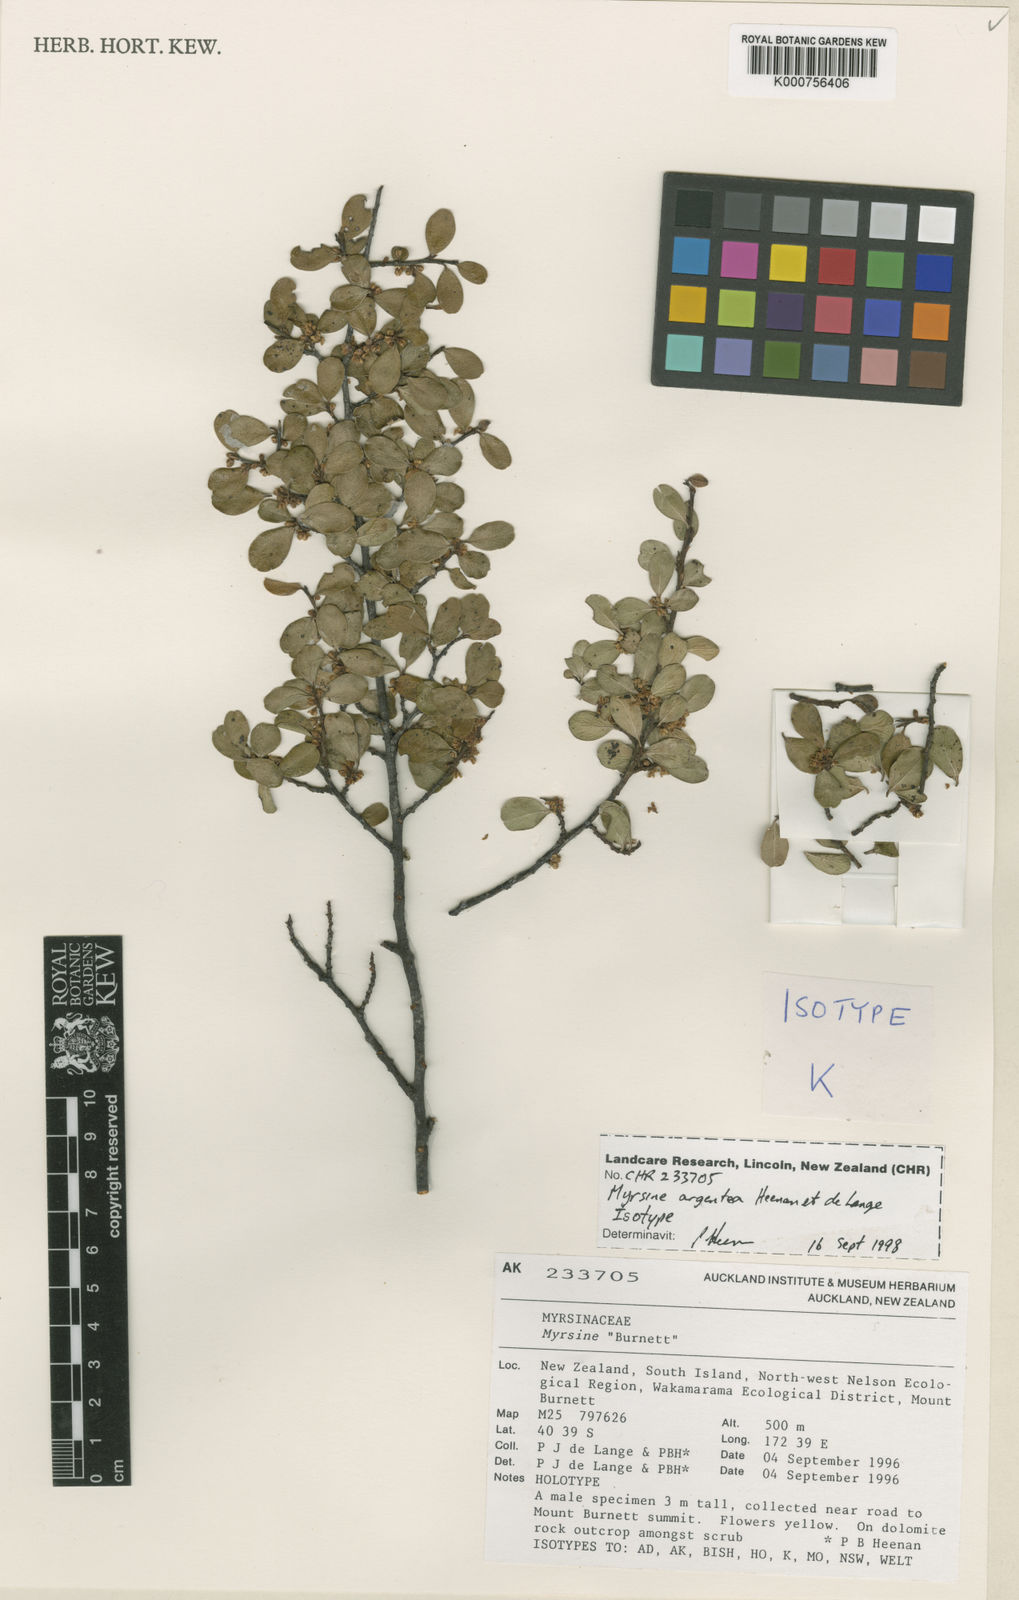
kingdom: Plantae
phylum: Tracheophyta
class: Magnoliopsida
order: Ericales
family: Primulaceae
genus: Myrsine
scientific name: Myrsine argentea
